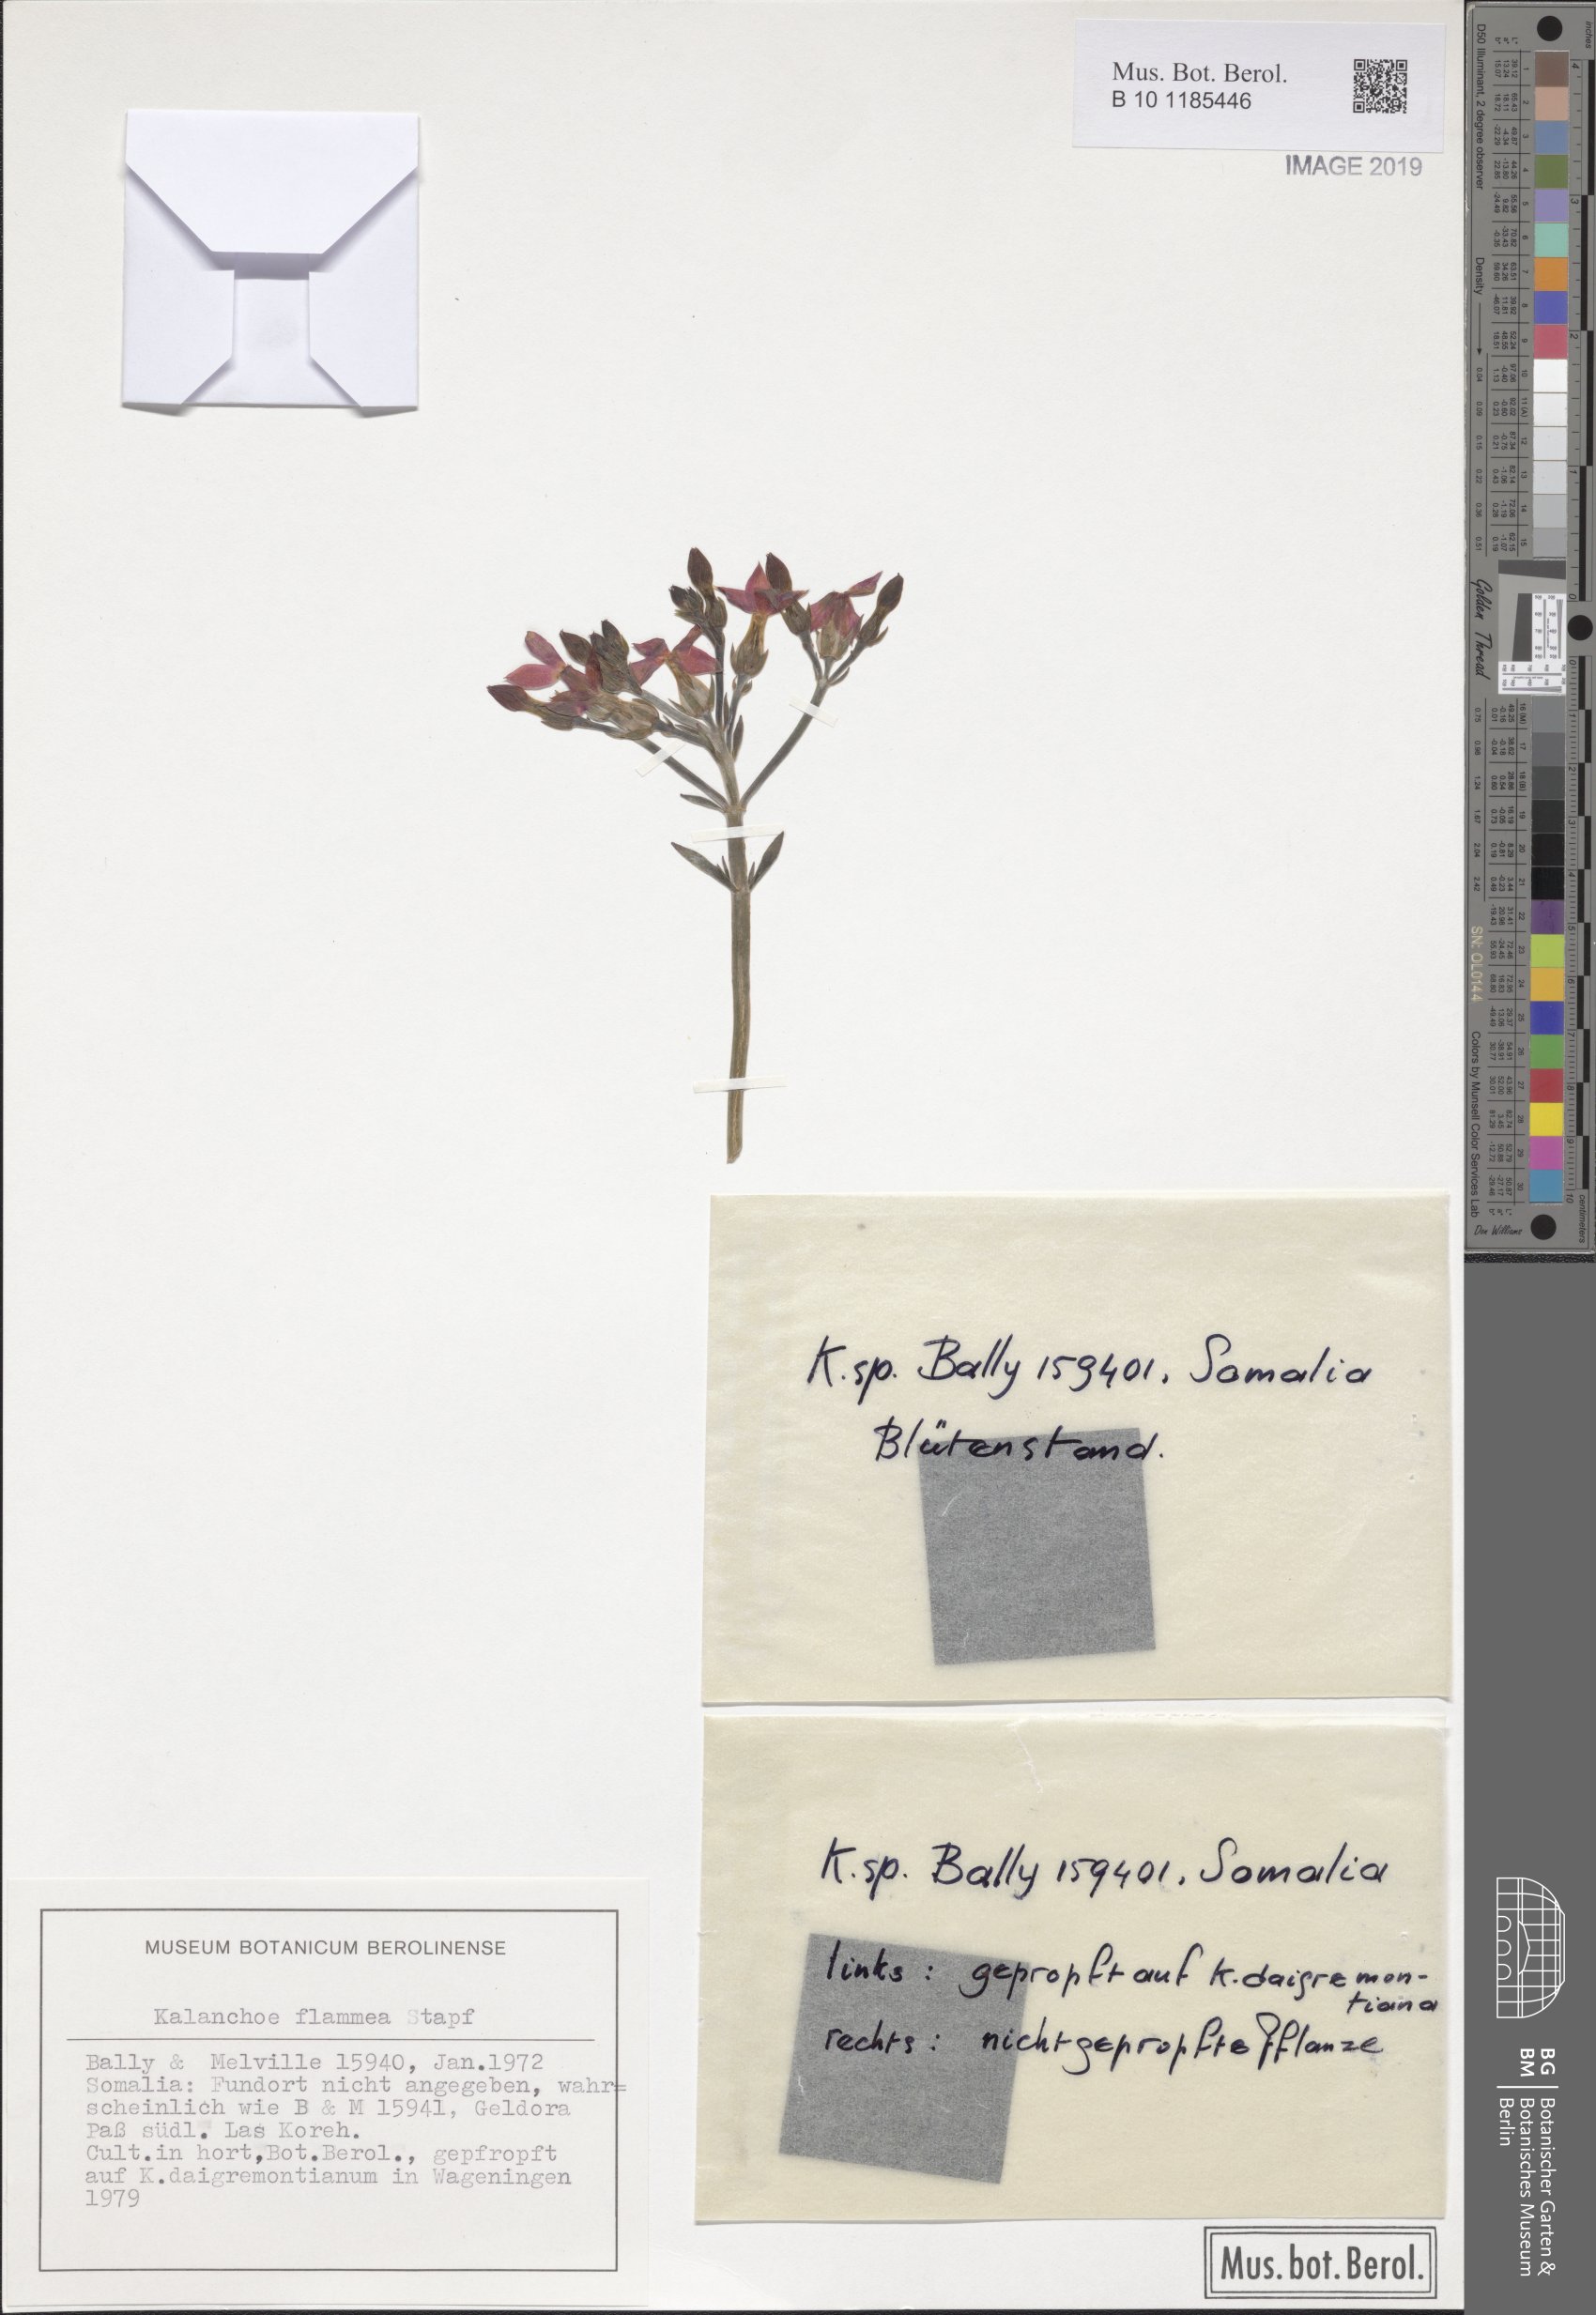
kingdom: Plantae
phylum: Tracheophyta
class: Magnoliopsida
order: Saxifragales
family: Crassulaceae
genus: Kalanchoe
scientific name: Kalanchoe
